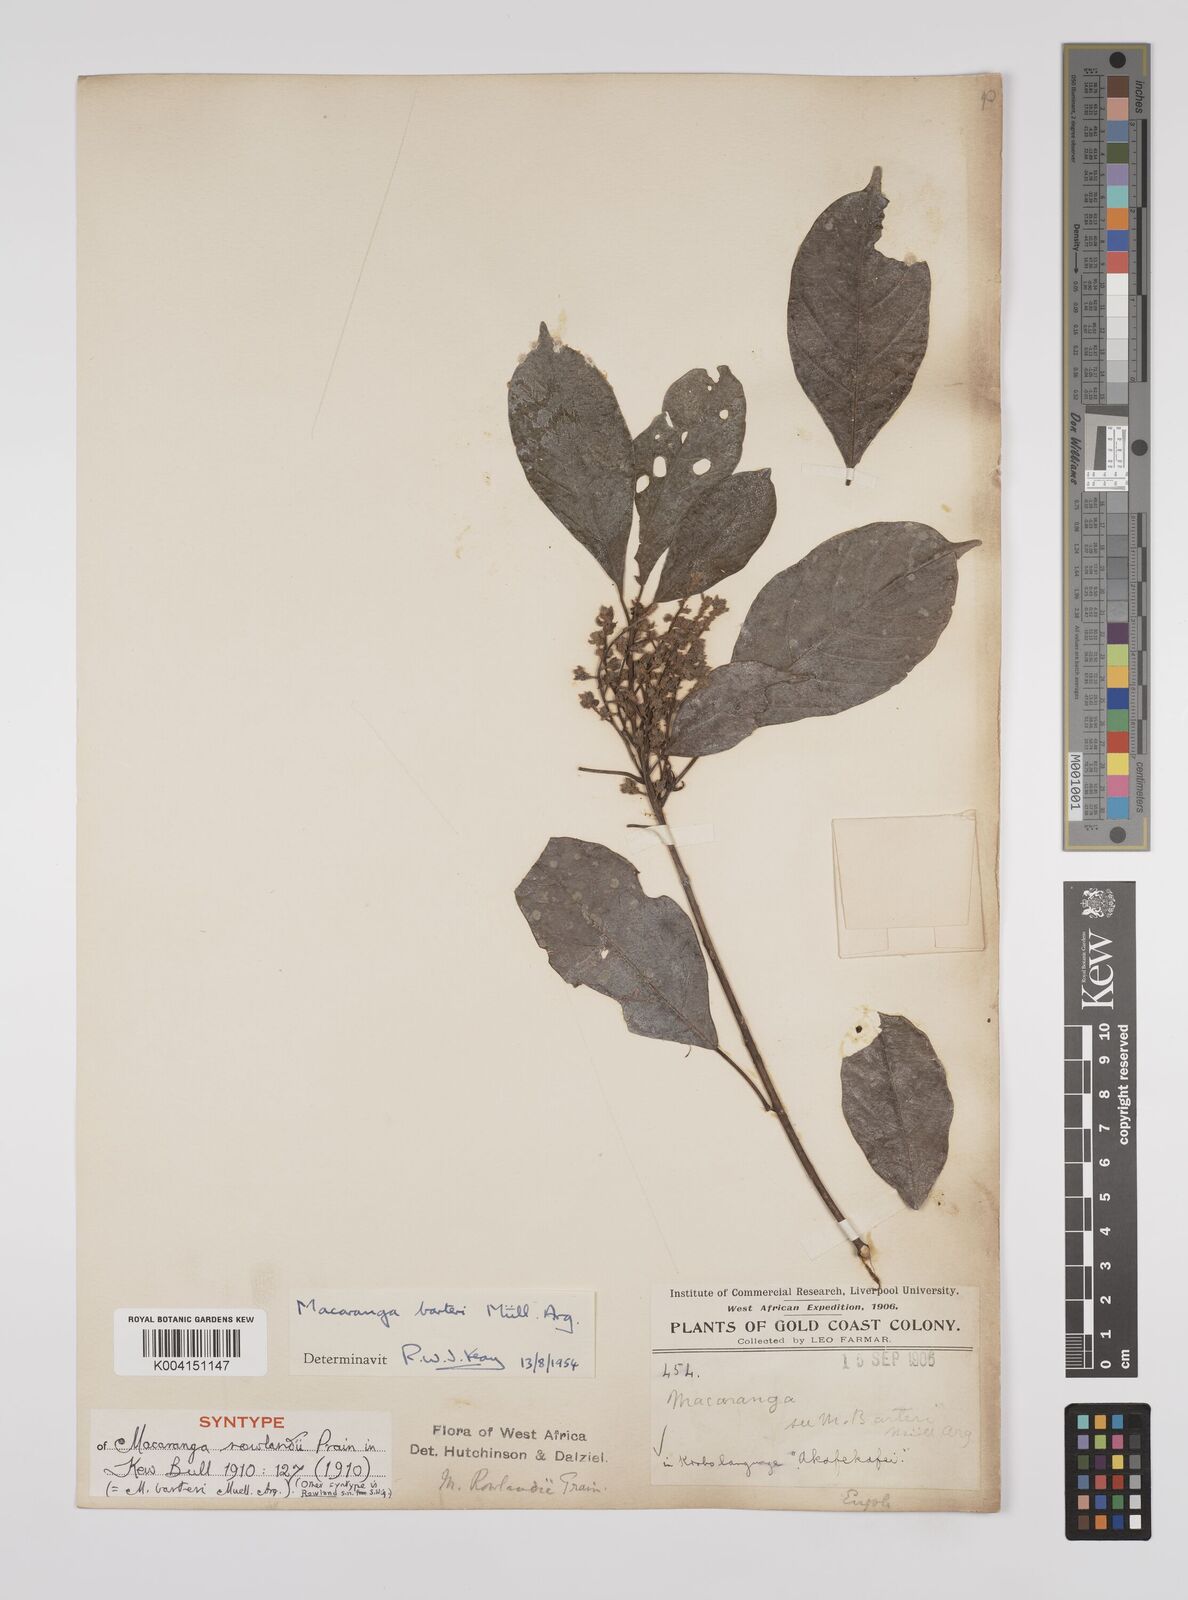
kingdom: Plantae
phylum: Tracheophyta
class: Magnoliopsida
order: Malpighiales
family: Euphorbiaceae
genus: Macaranga
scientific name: Macaranga barteri
